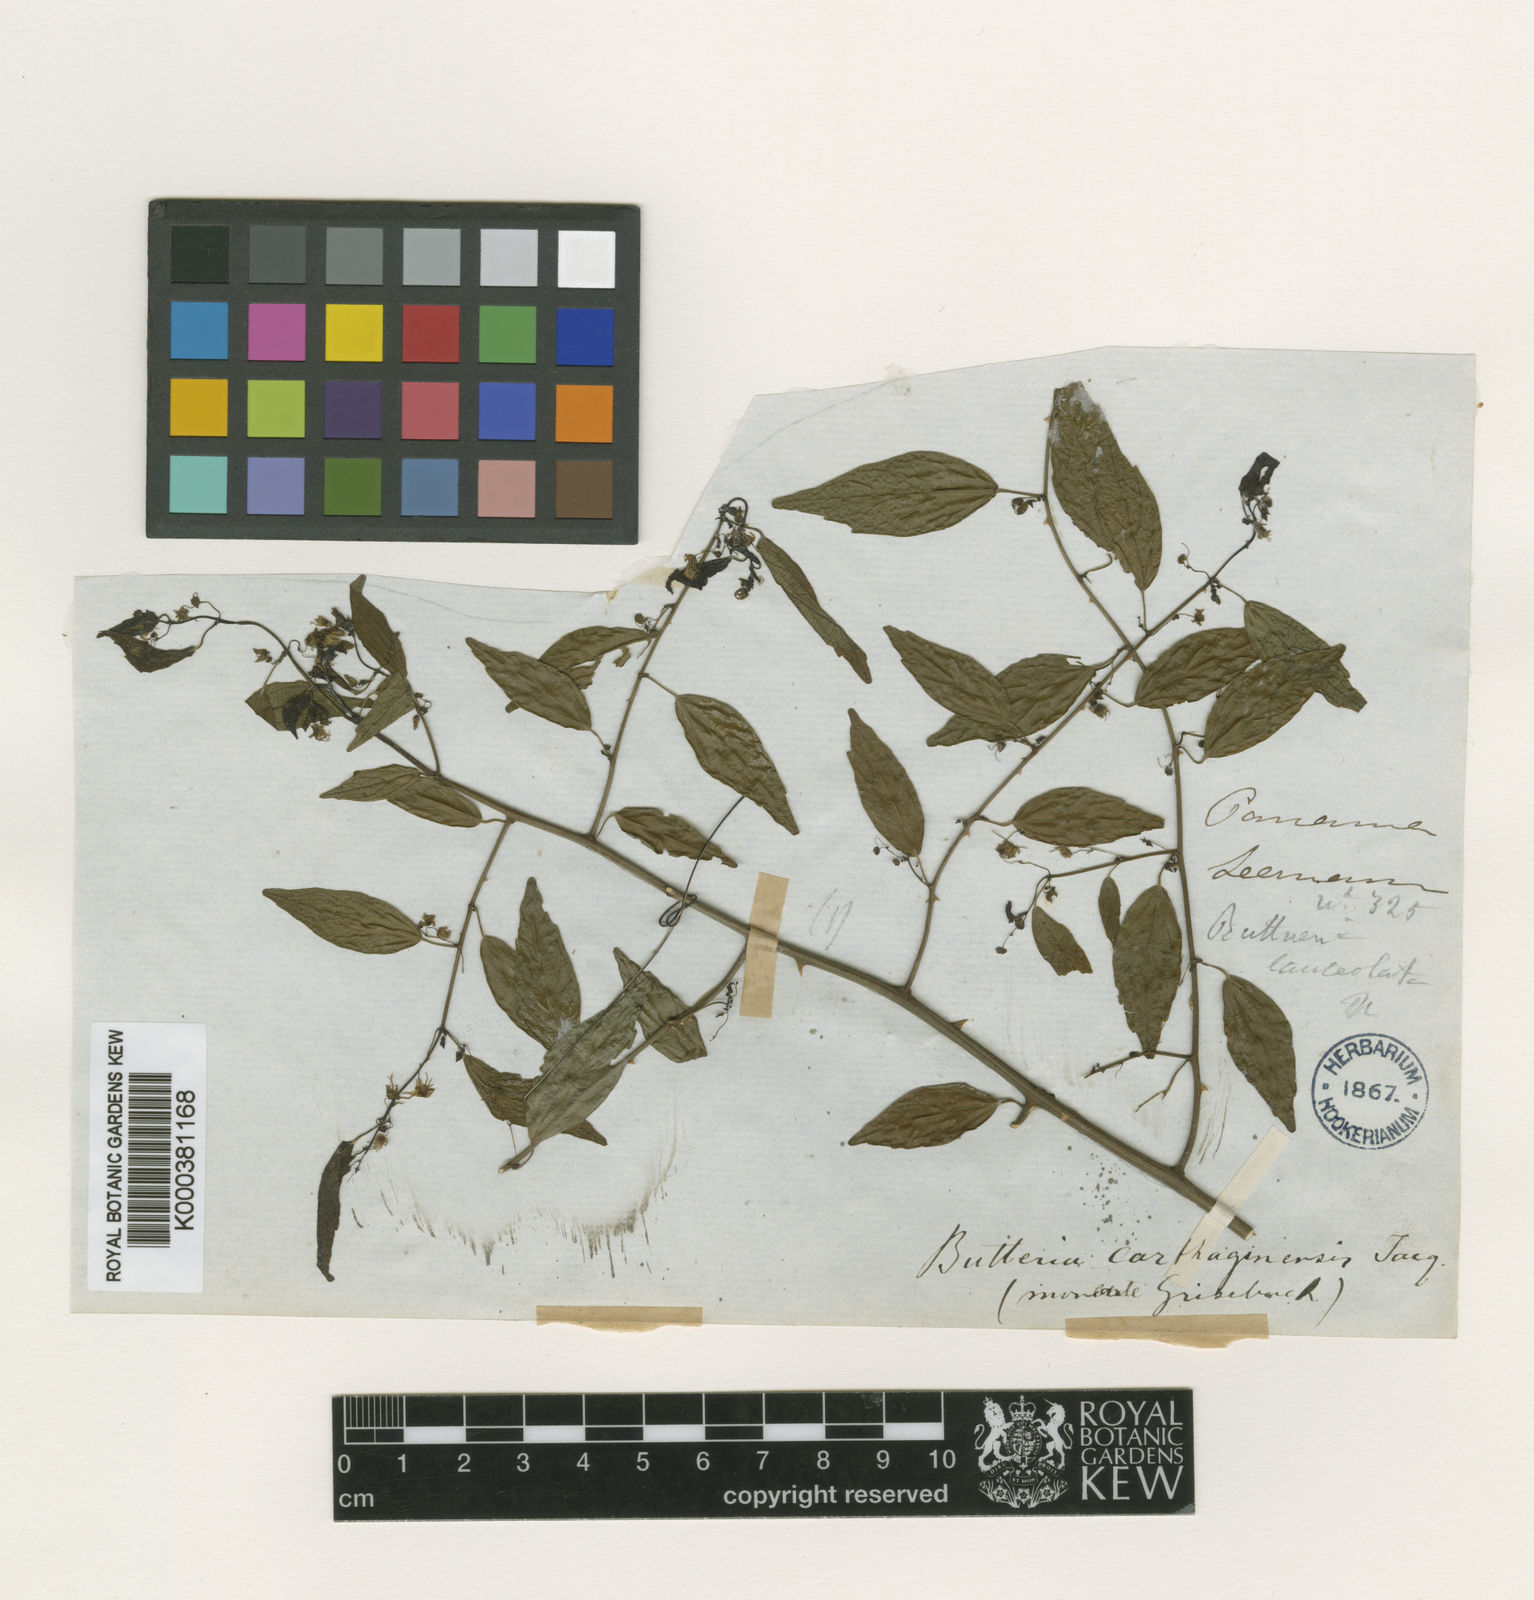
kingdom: Plantae
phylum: Tracheophyta
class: Magnoliopsida
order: Malvales
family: Malvaceae
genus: Byttneria
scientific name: Byttneria aculeata
